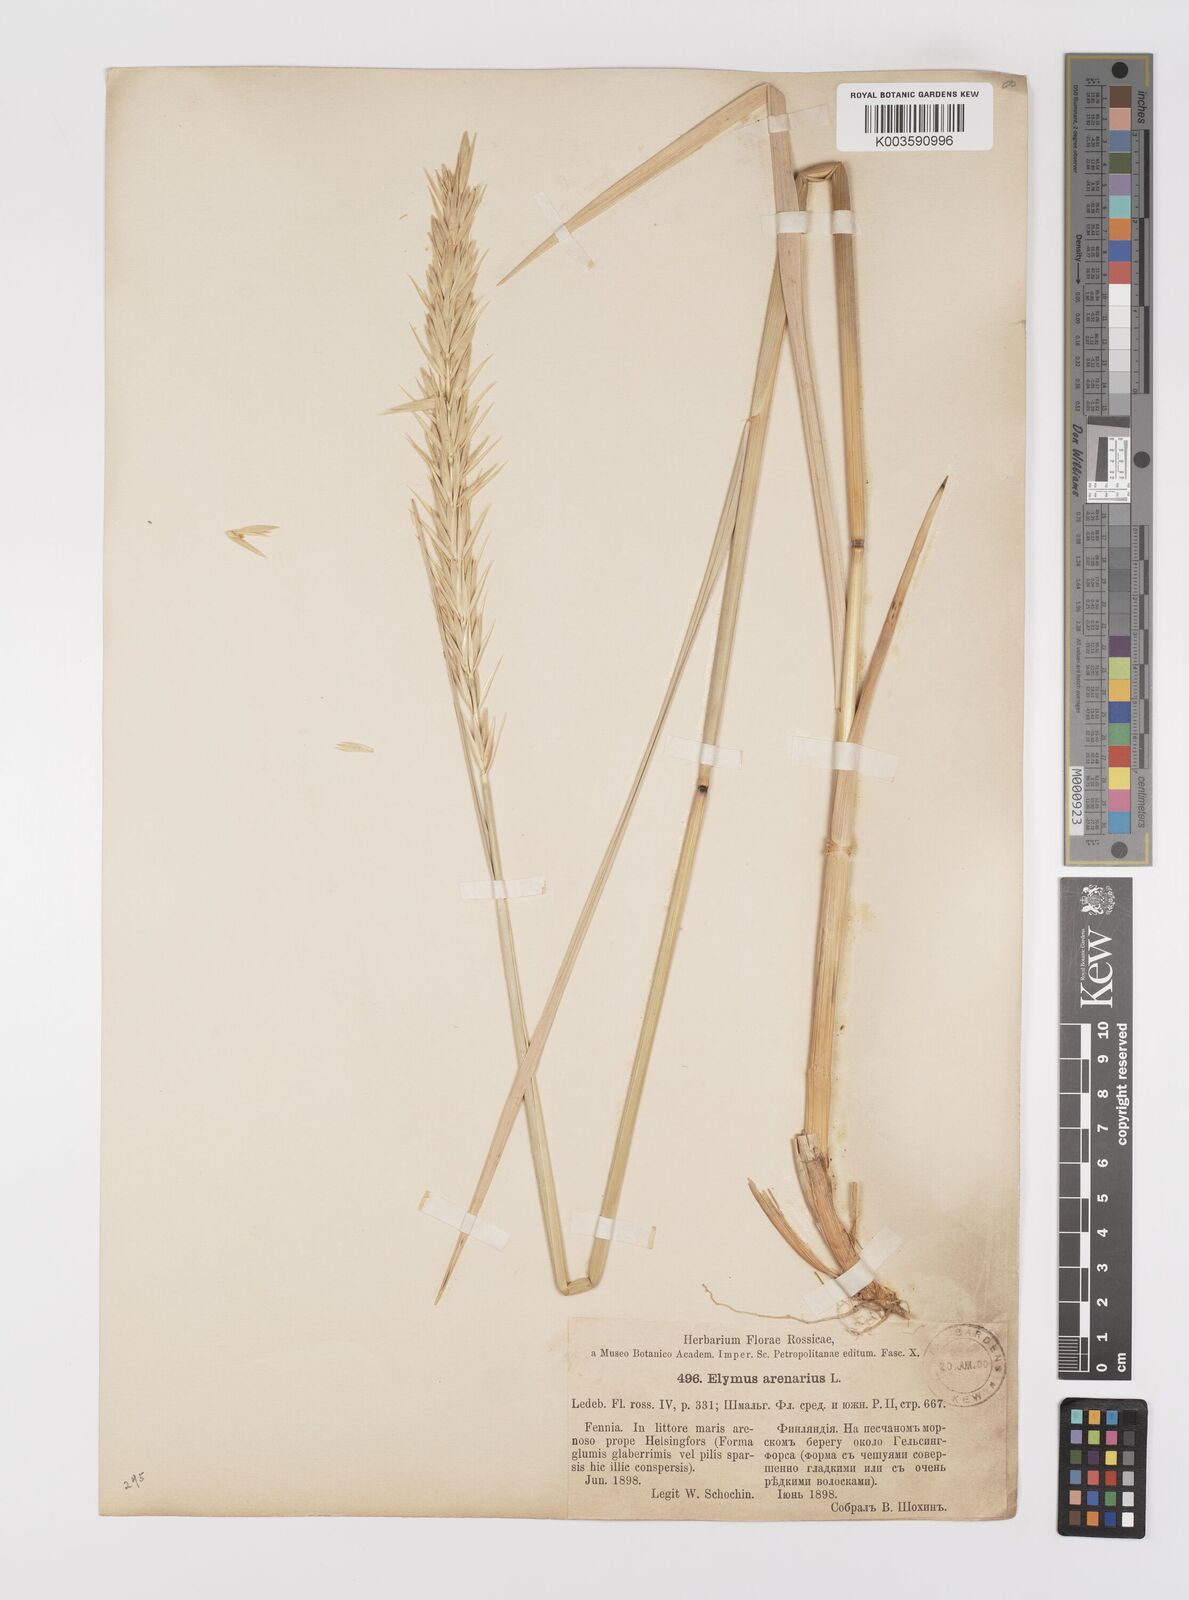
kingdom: Plantae
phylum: Tracheophyta
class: Liliopsida
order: Poales
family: Poaceae
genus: Leymus
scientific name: Leymus arenarius
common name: Lyme-grass
